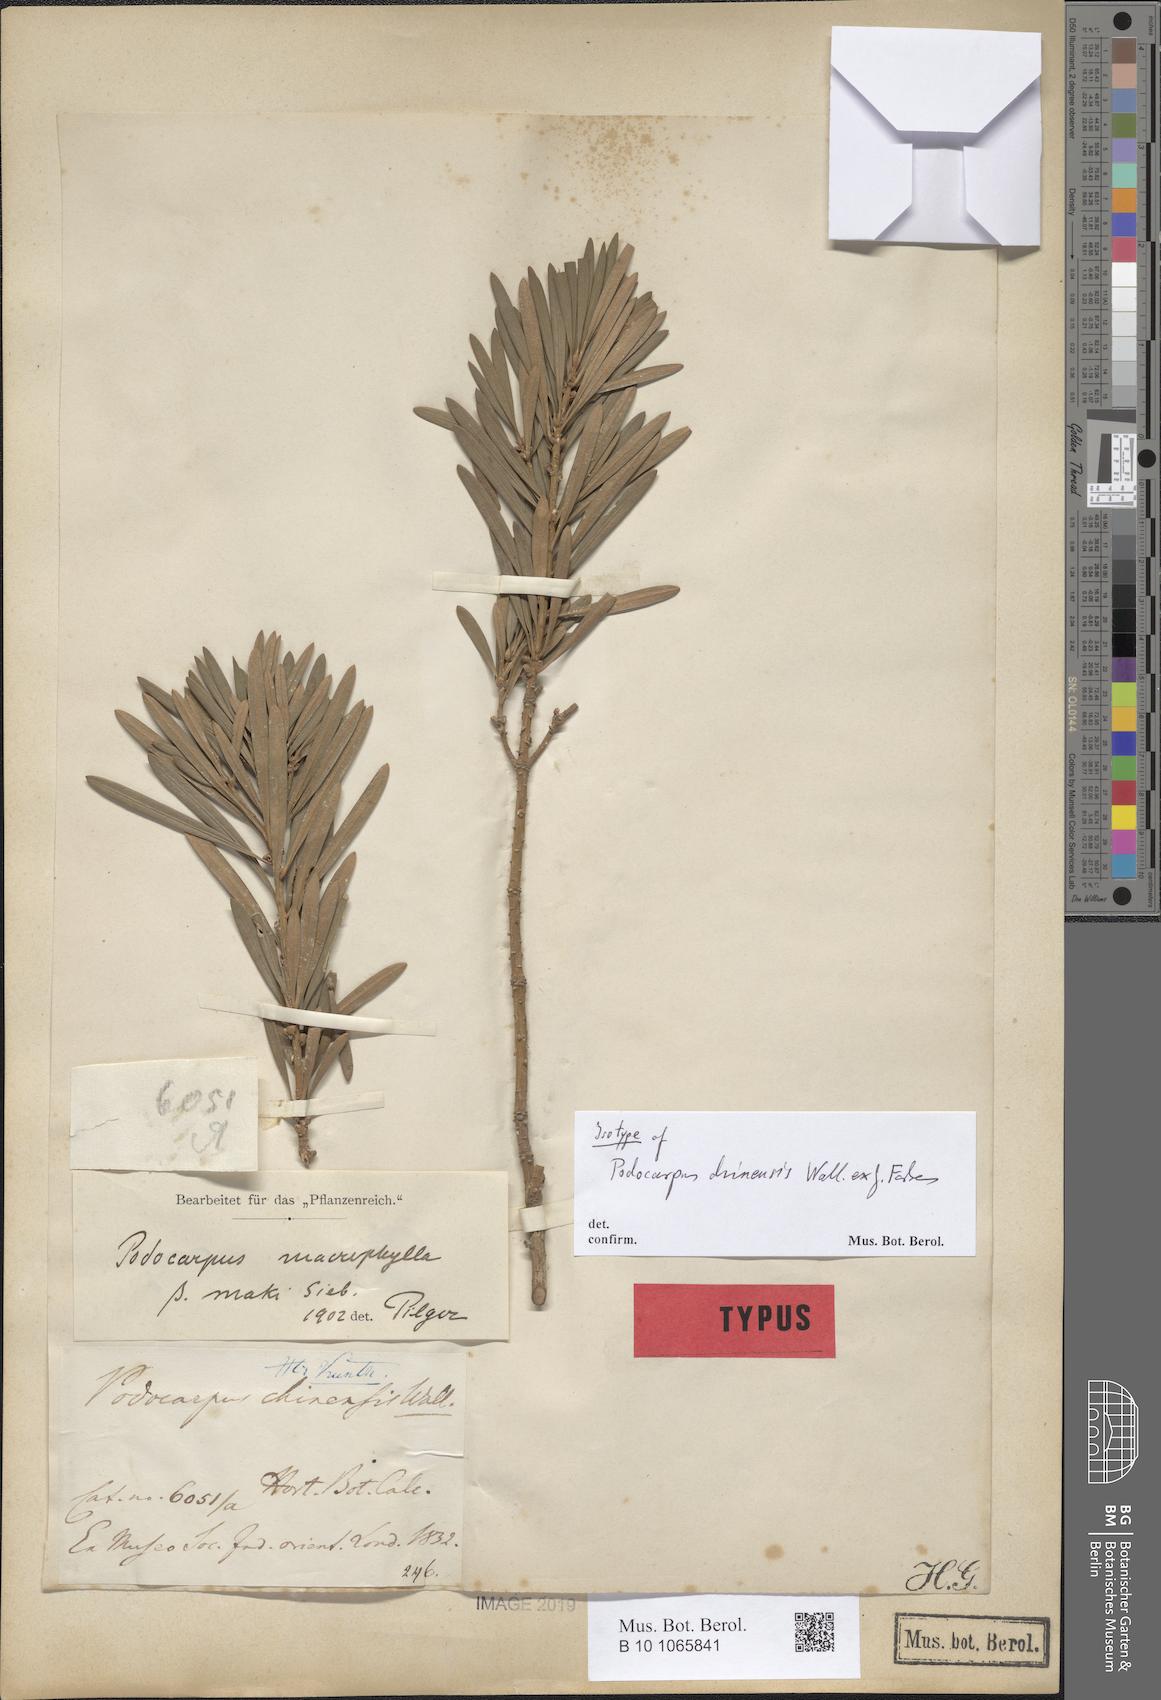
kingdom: Plantae
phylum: Tracheophyta
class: Pinopsida
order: Pinales
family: Podocarpaceae
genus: Podocarpus
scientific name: Podocarpus macrophyllus
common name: Japanese yew
